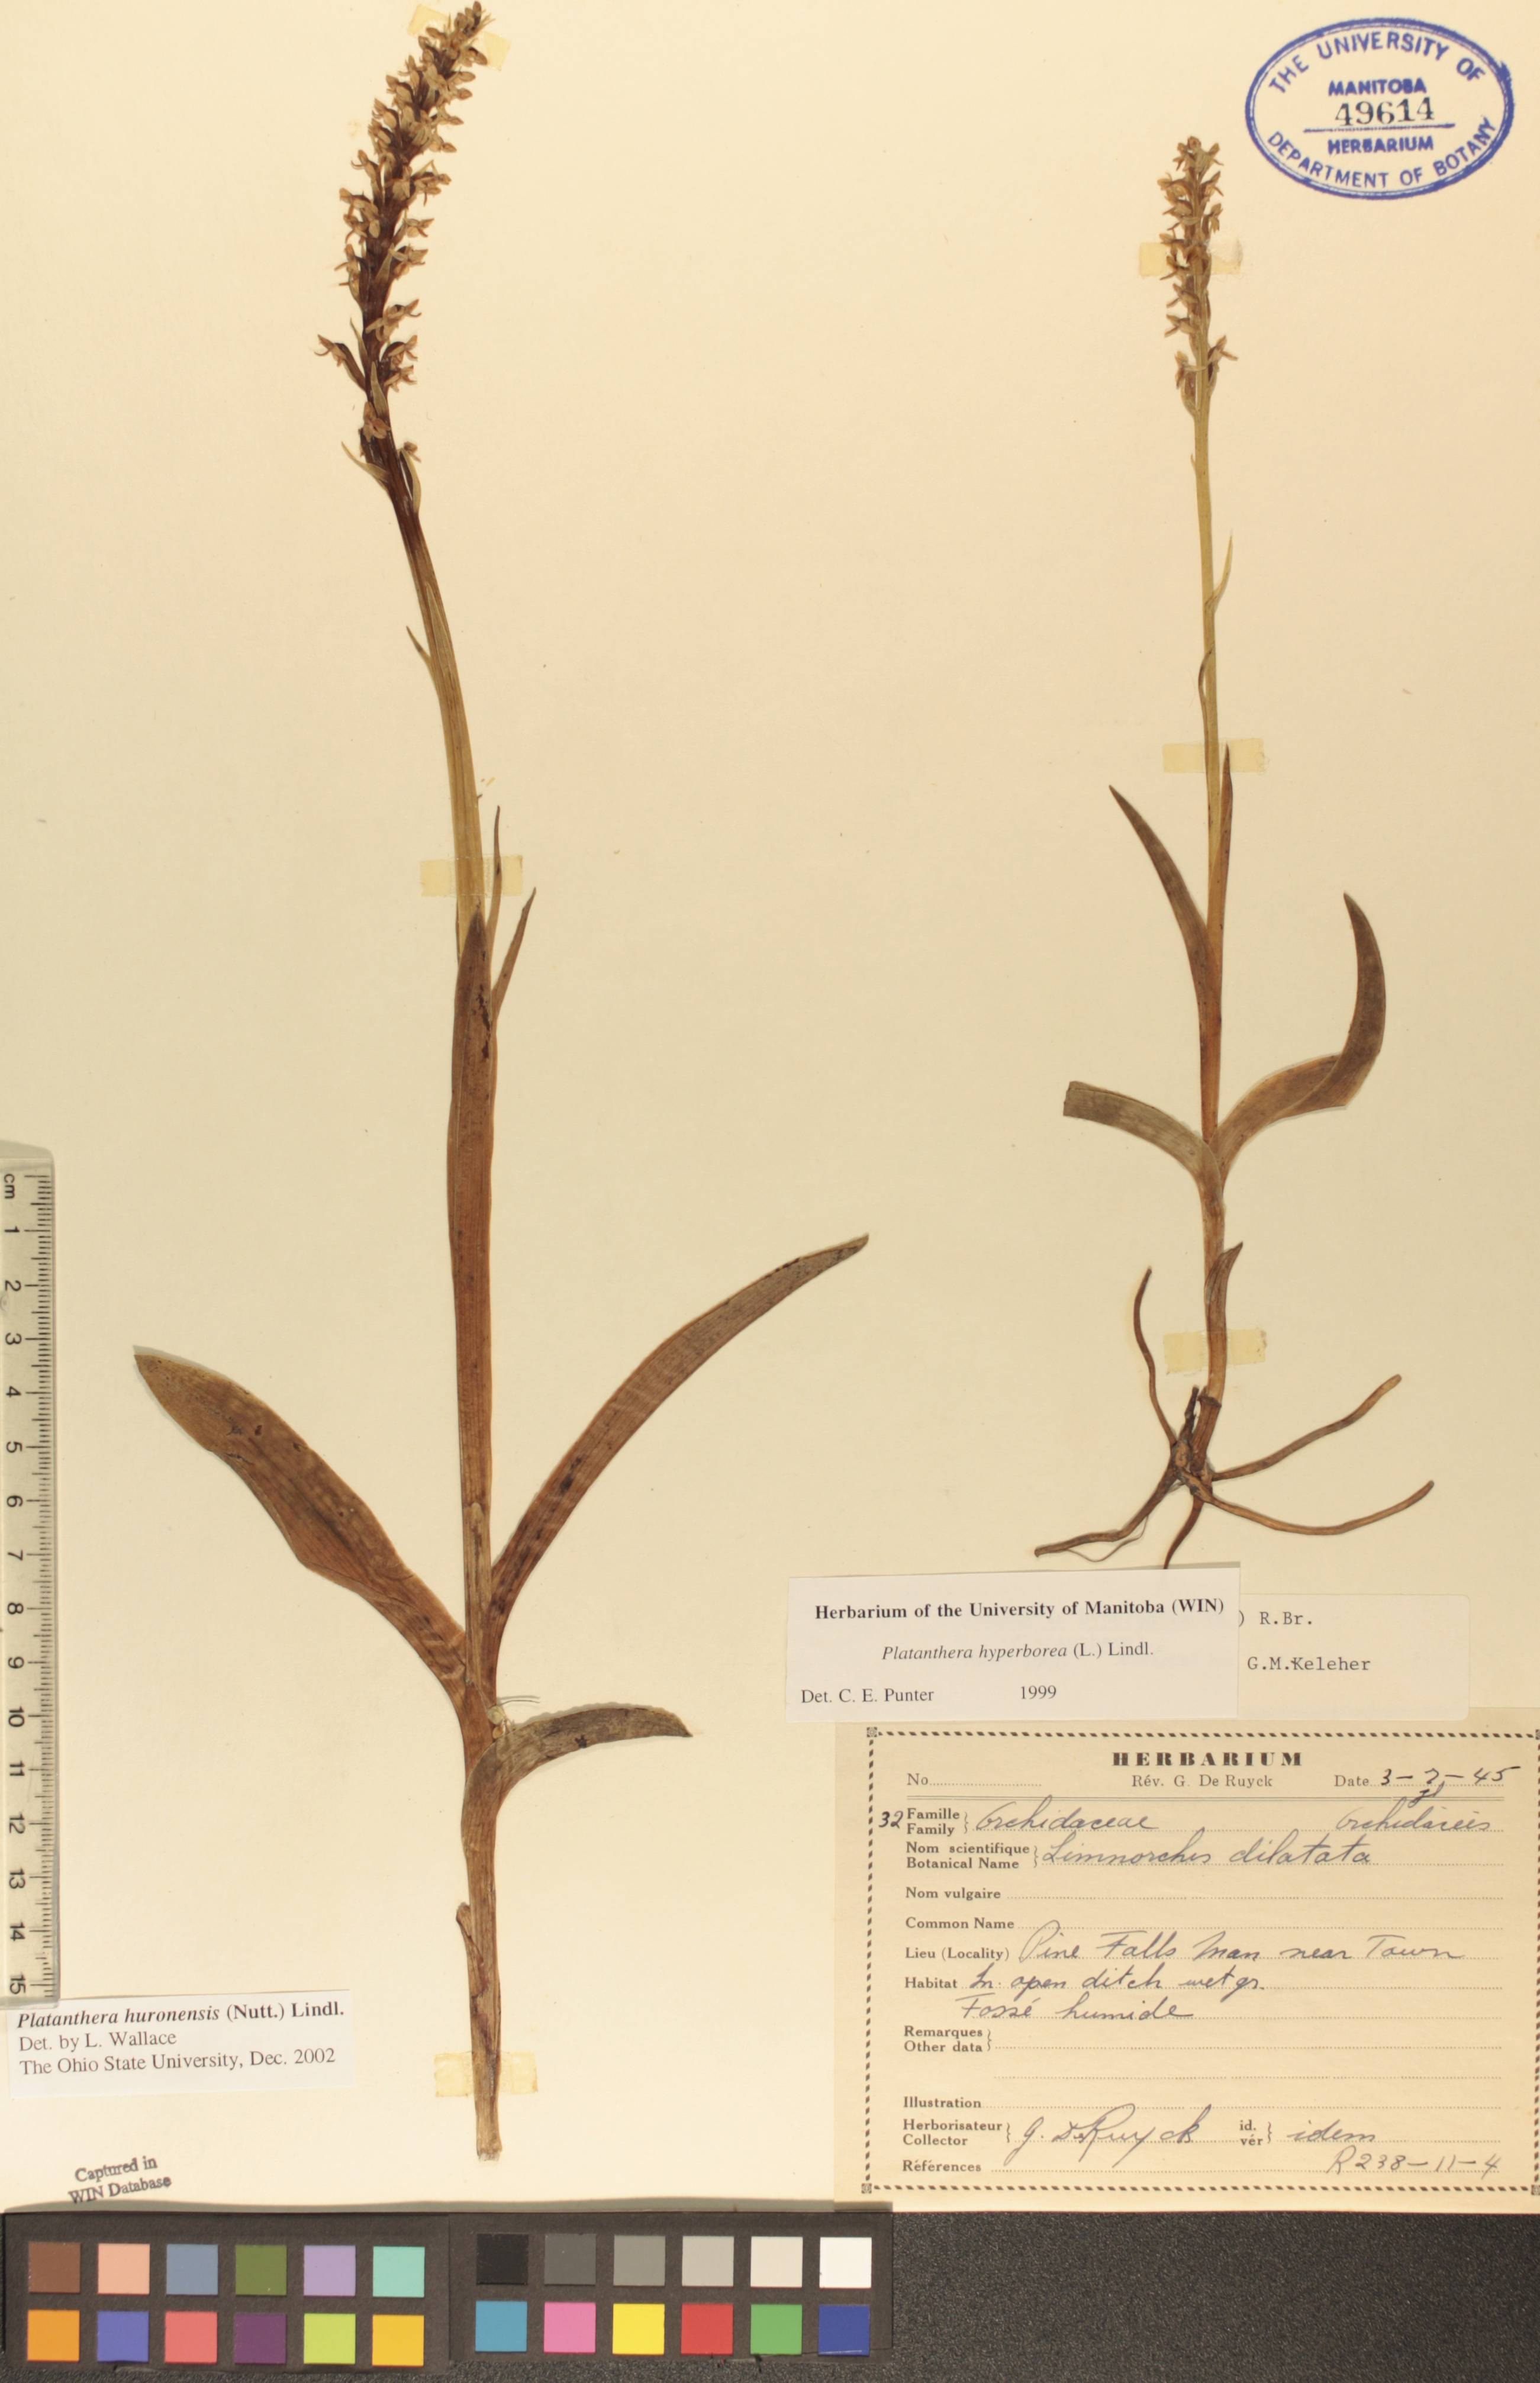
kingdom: Plantae
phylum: Tracheophyta
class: Liliopsida
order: Asparagales
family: Orchidaceae
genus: Platanthera
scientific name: Platanthera huronensis
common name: Fragrant green orchid
